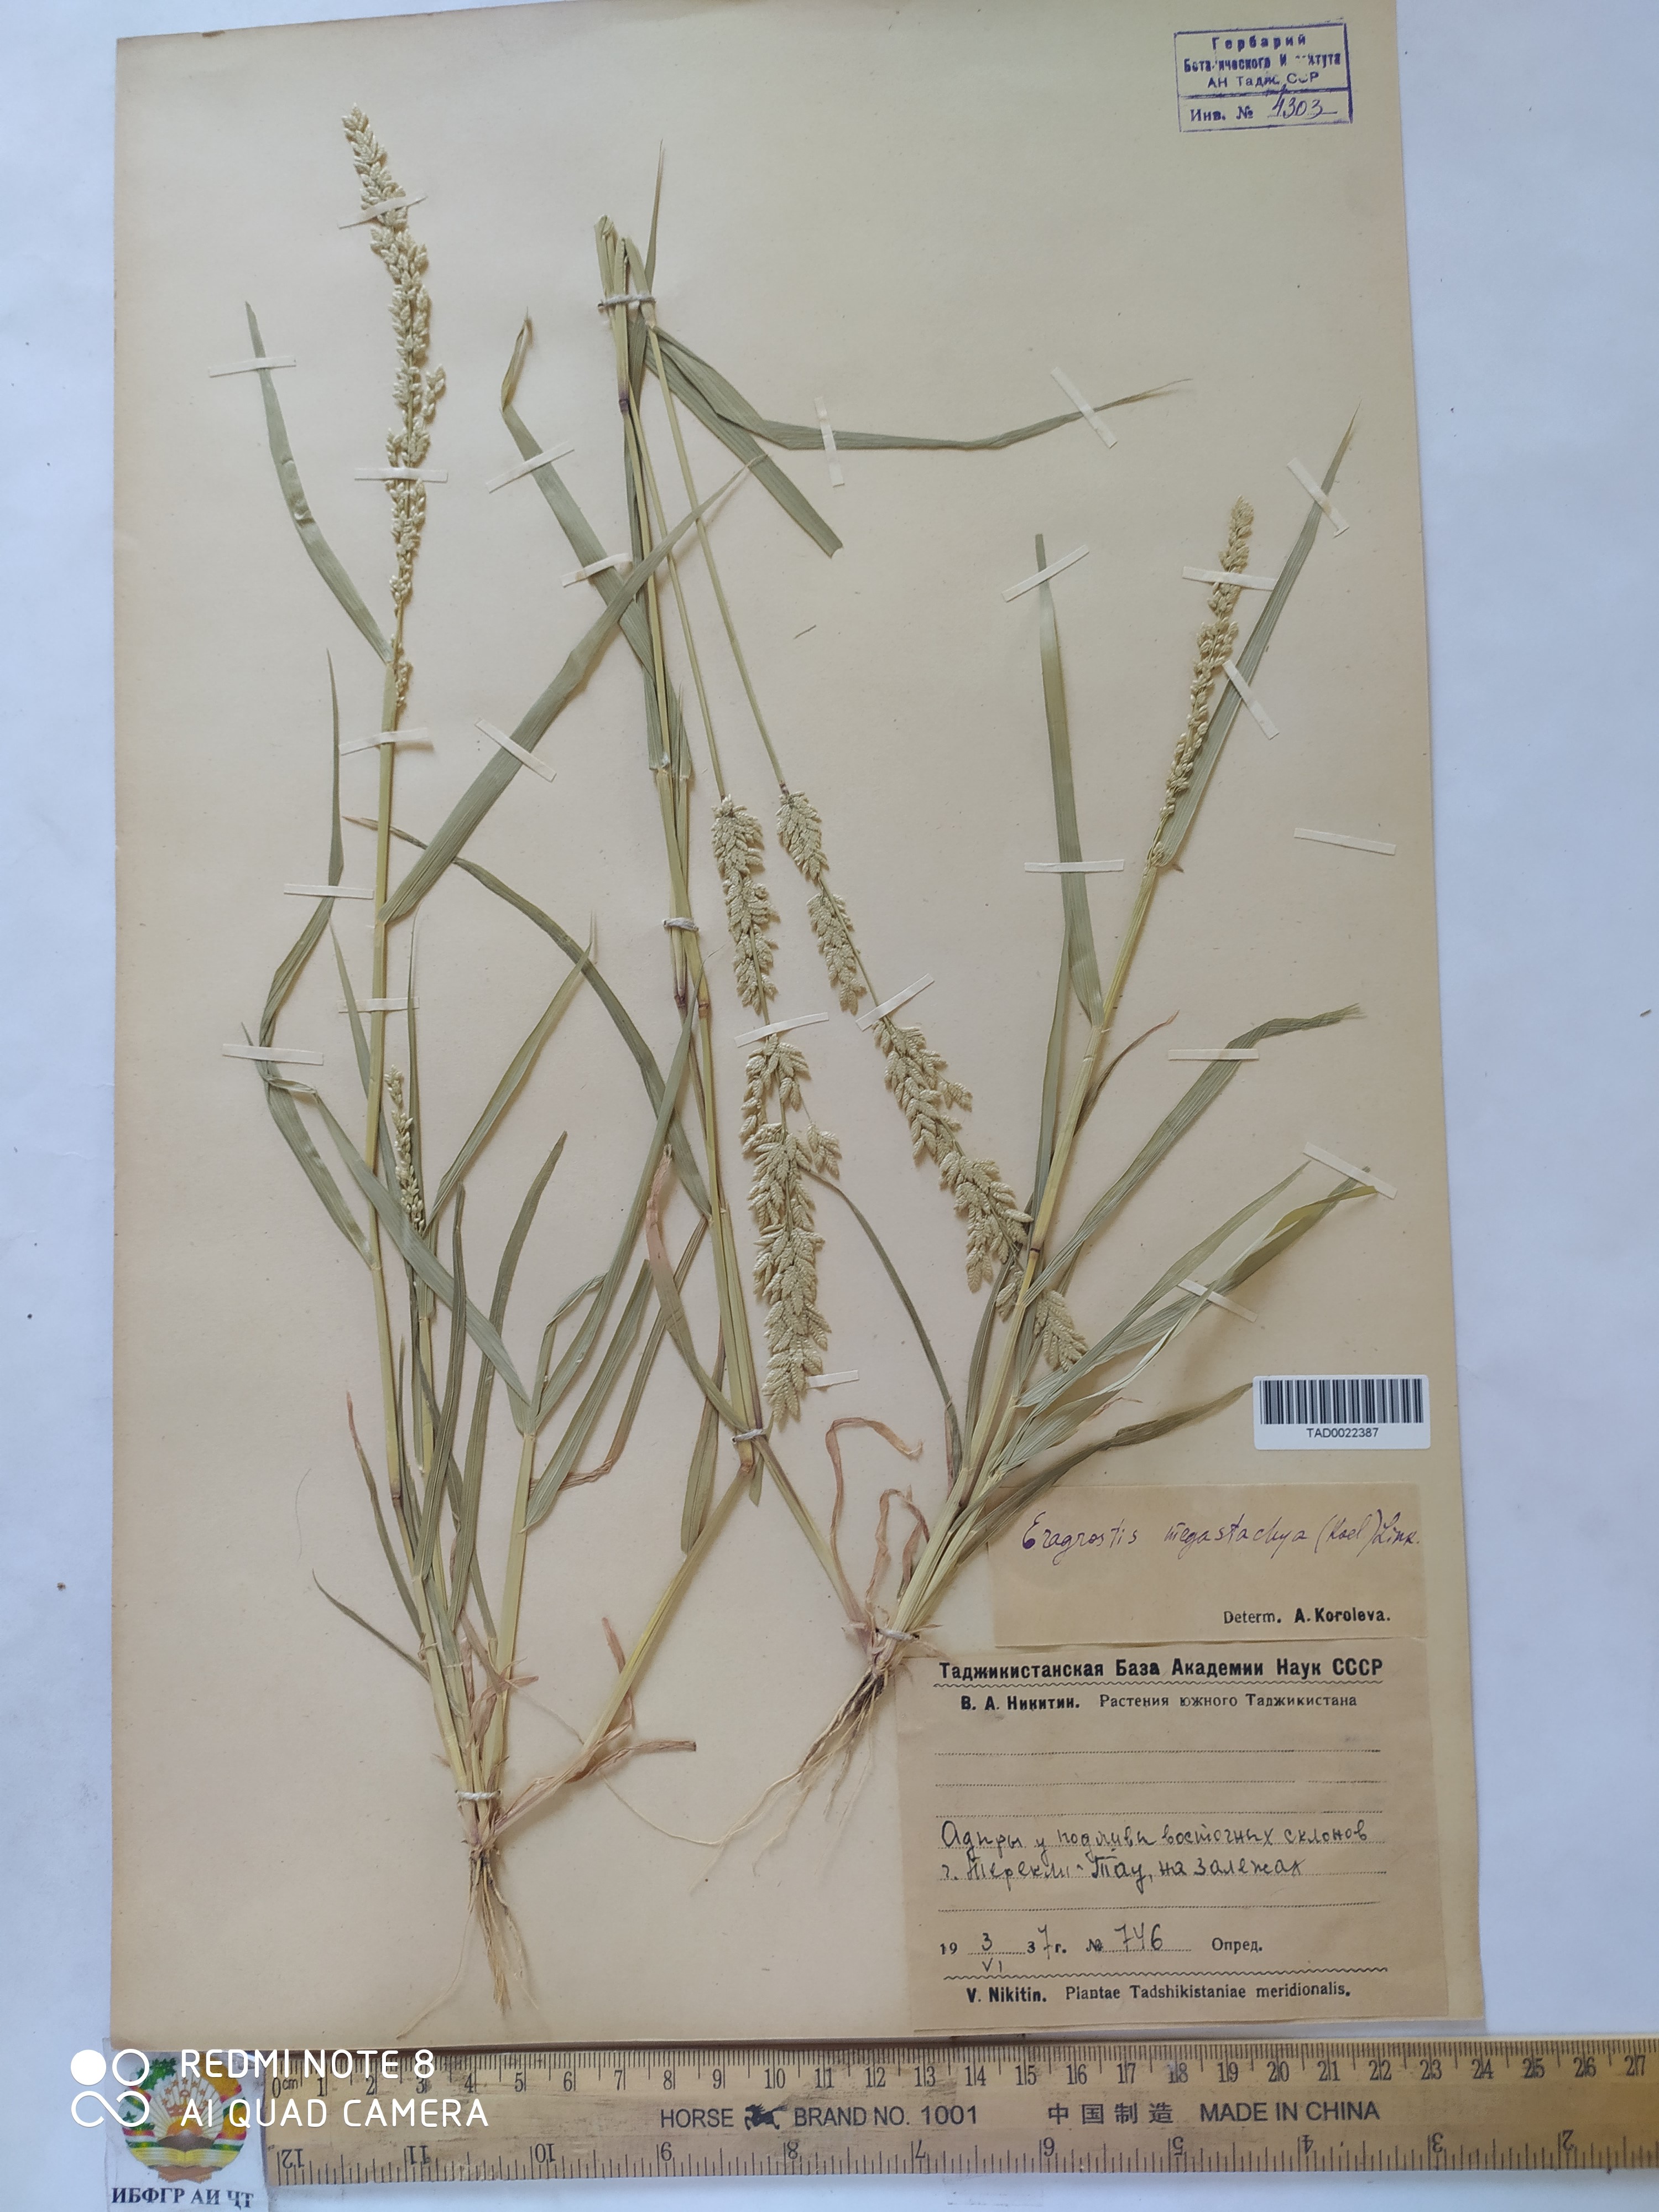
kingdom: Plantae
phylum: Tracheophyta
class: Liliopsida
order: Poales
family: Poaceae
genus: Eragrostis
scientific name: Eragrostis cilianensis
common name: Stinkgrass
